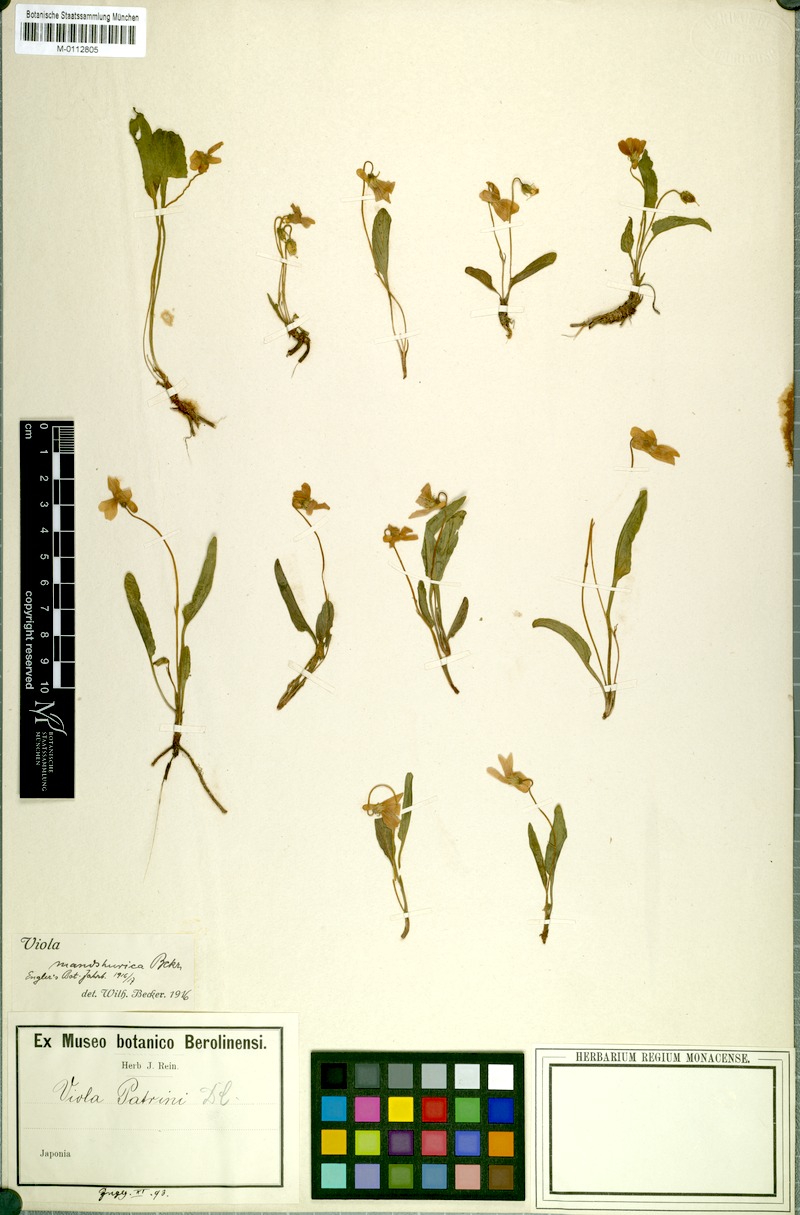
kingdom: Plantae
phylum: Tracheophyta
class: Magnoliopsida
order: Malpighiales
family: Violaceae
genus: Viola
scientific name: Viola mandshurica
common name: Manchuria violet
